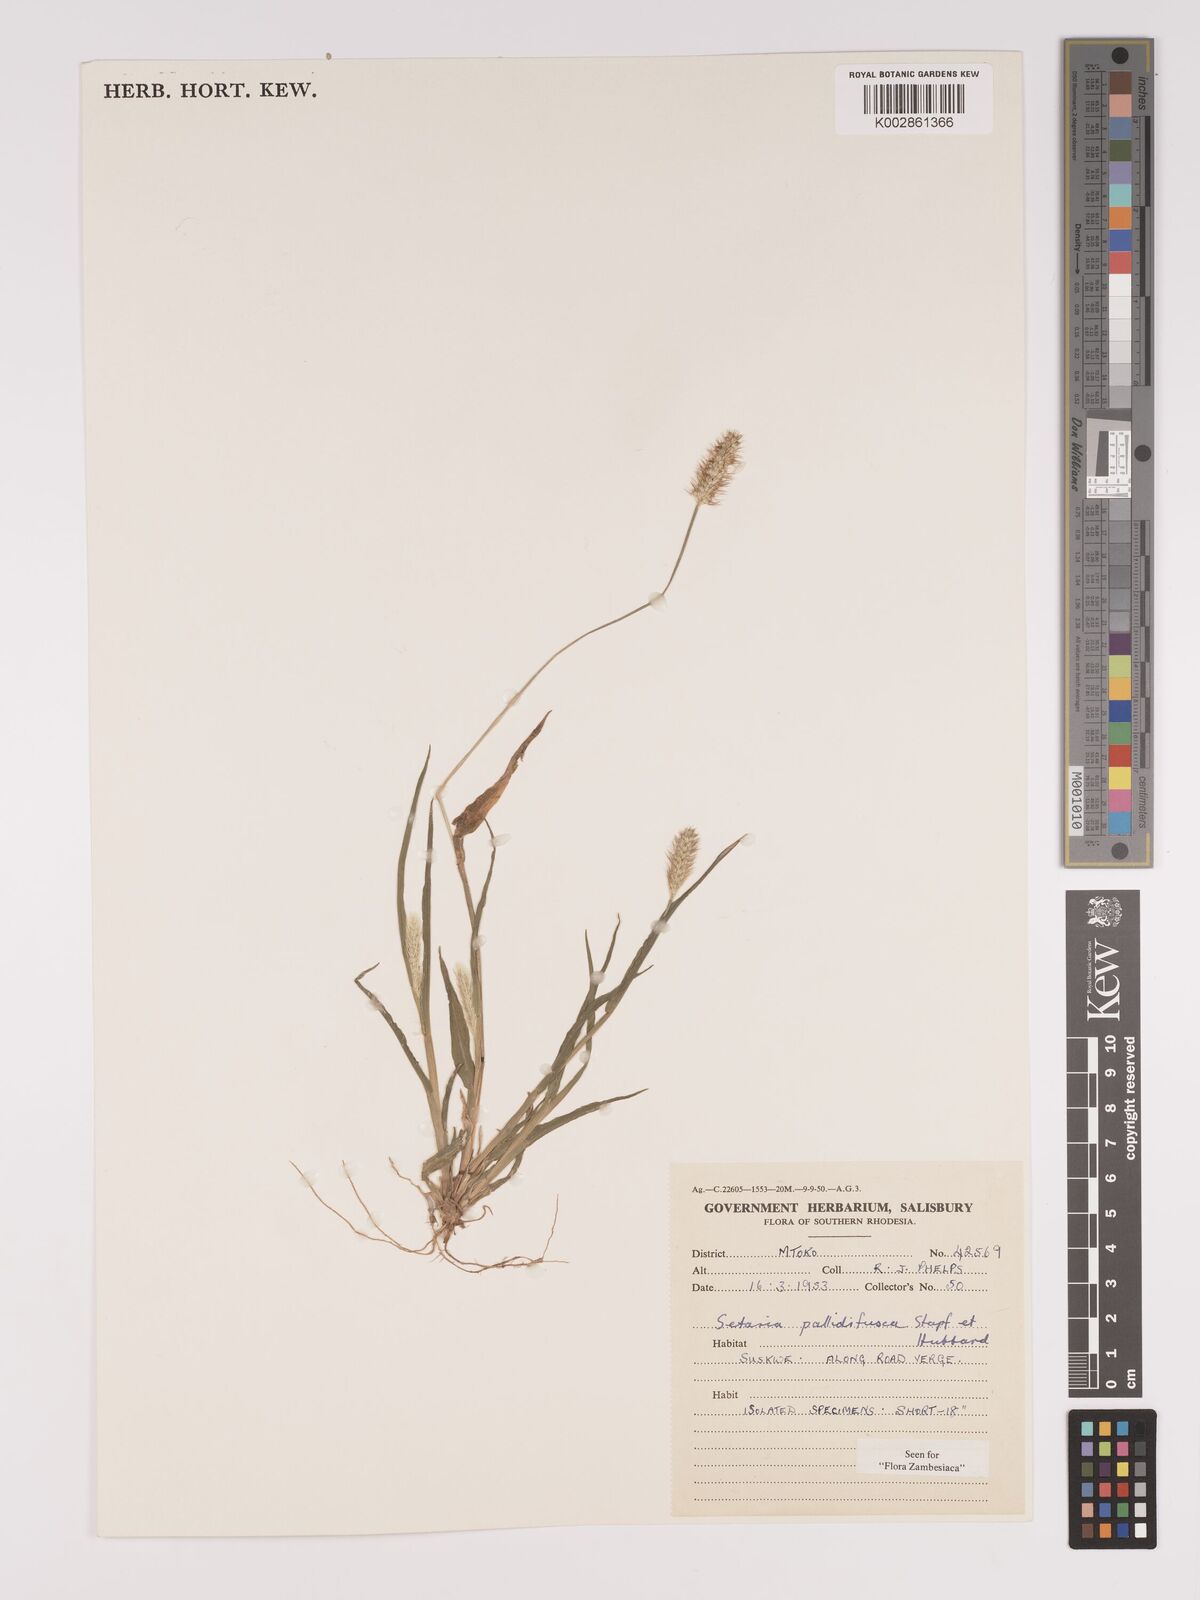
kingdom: Plantae
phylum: Tracheophyta
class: Liliopsida
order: Poales
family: Poaceae
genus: Setaria
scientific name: Setaria pumila
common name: Yellow bristle-grass
